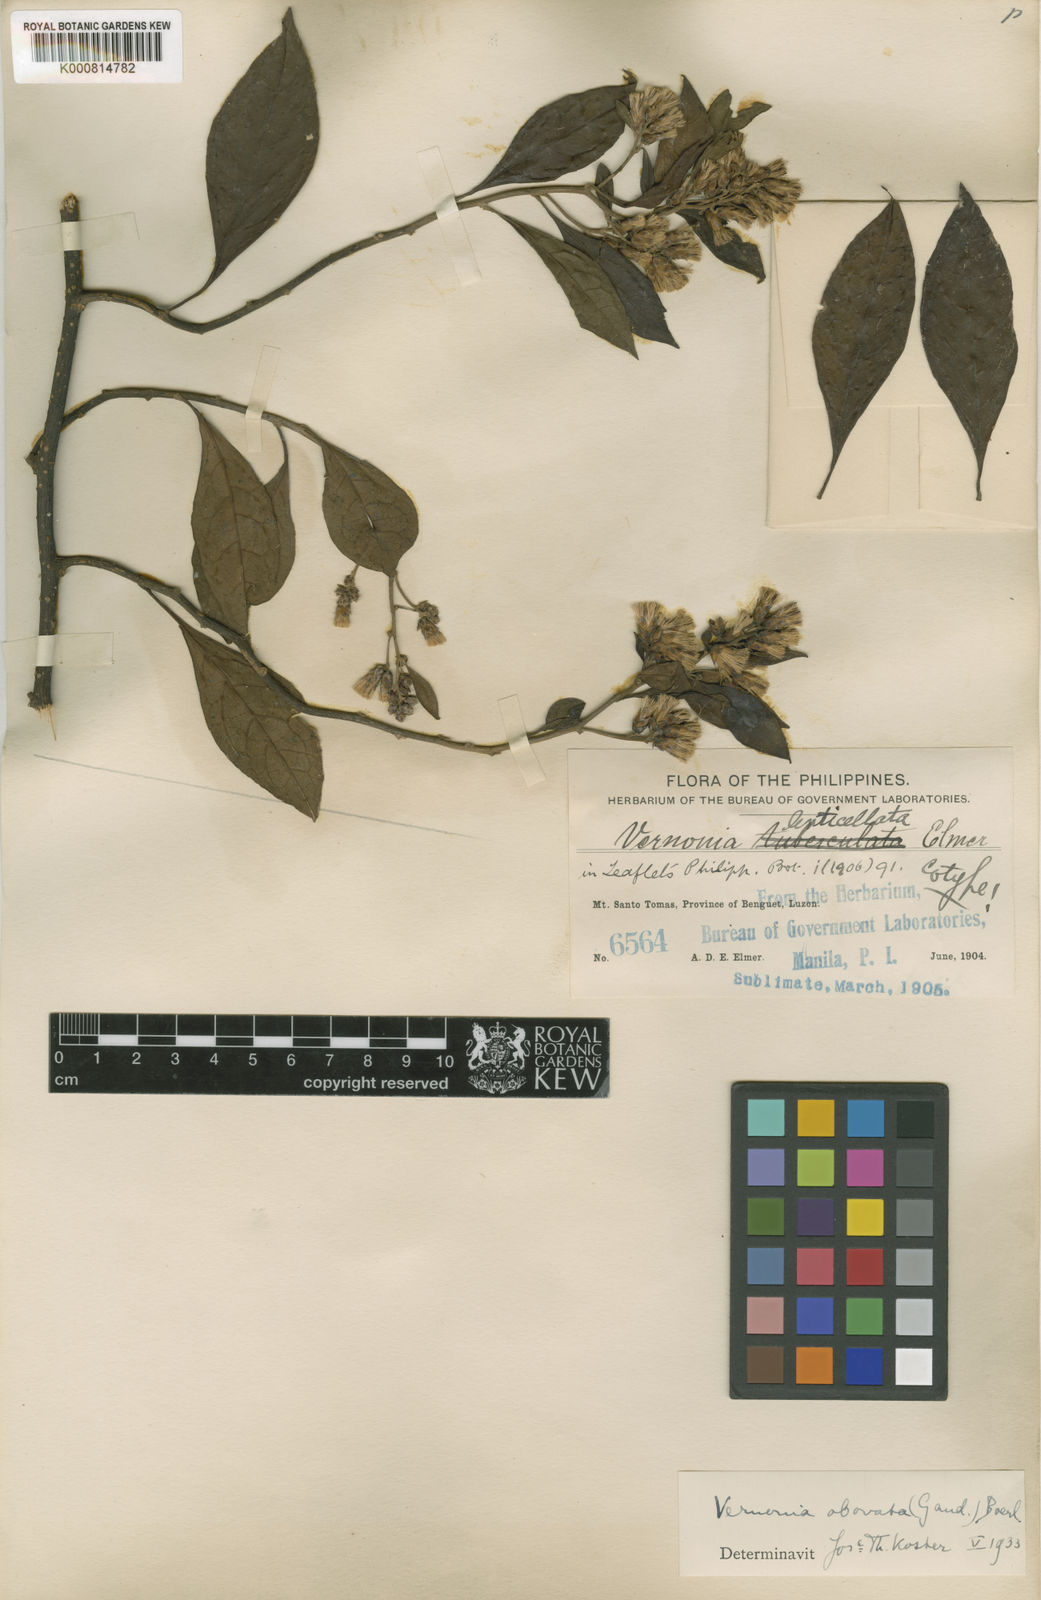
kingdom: Plantae
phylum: Tracheophyta
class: Magnoliopsida
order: Asterales
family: Asteraceae
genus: Decaneuropsis
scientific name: Decaneuropsis obovata
